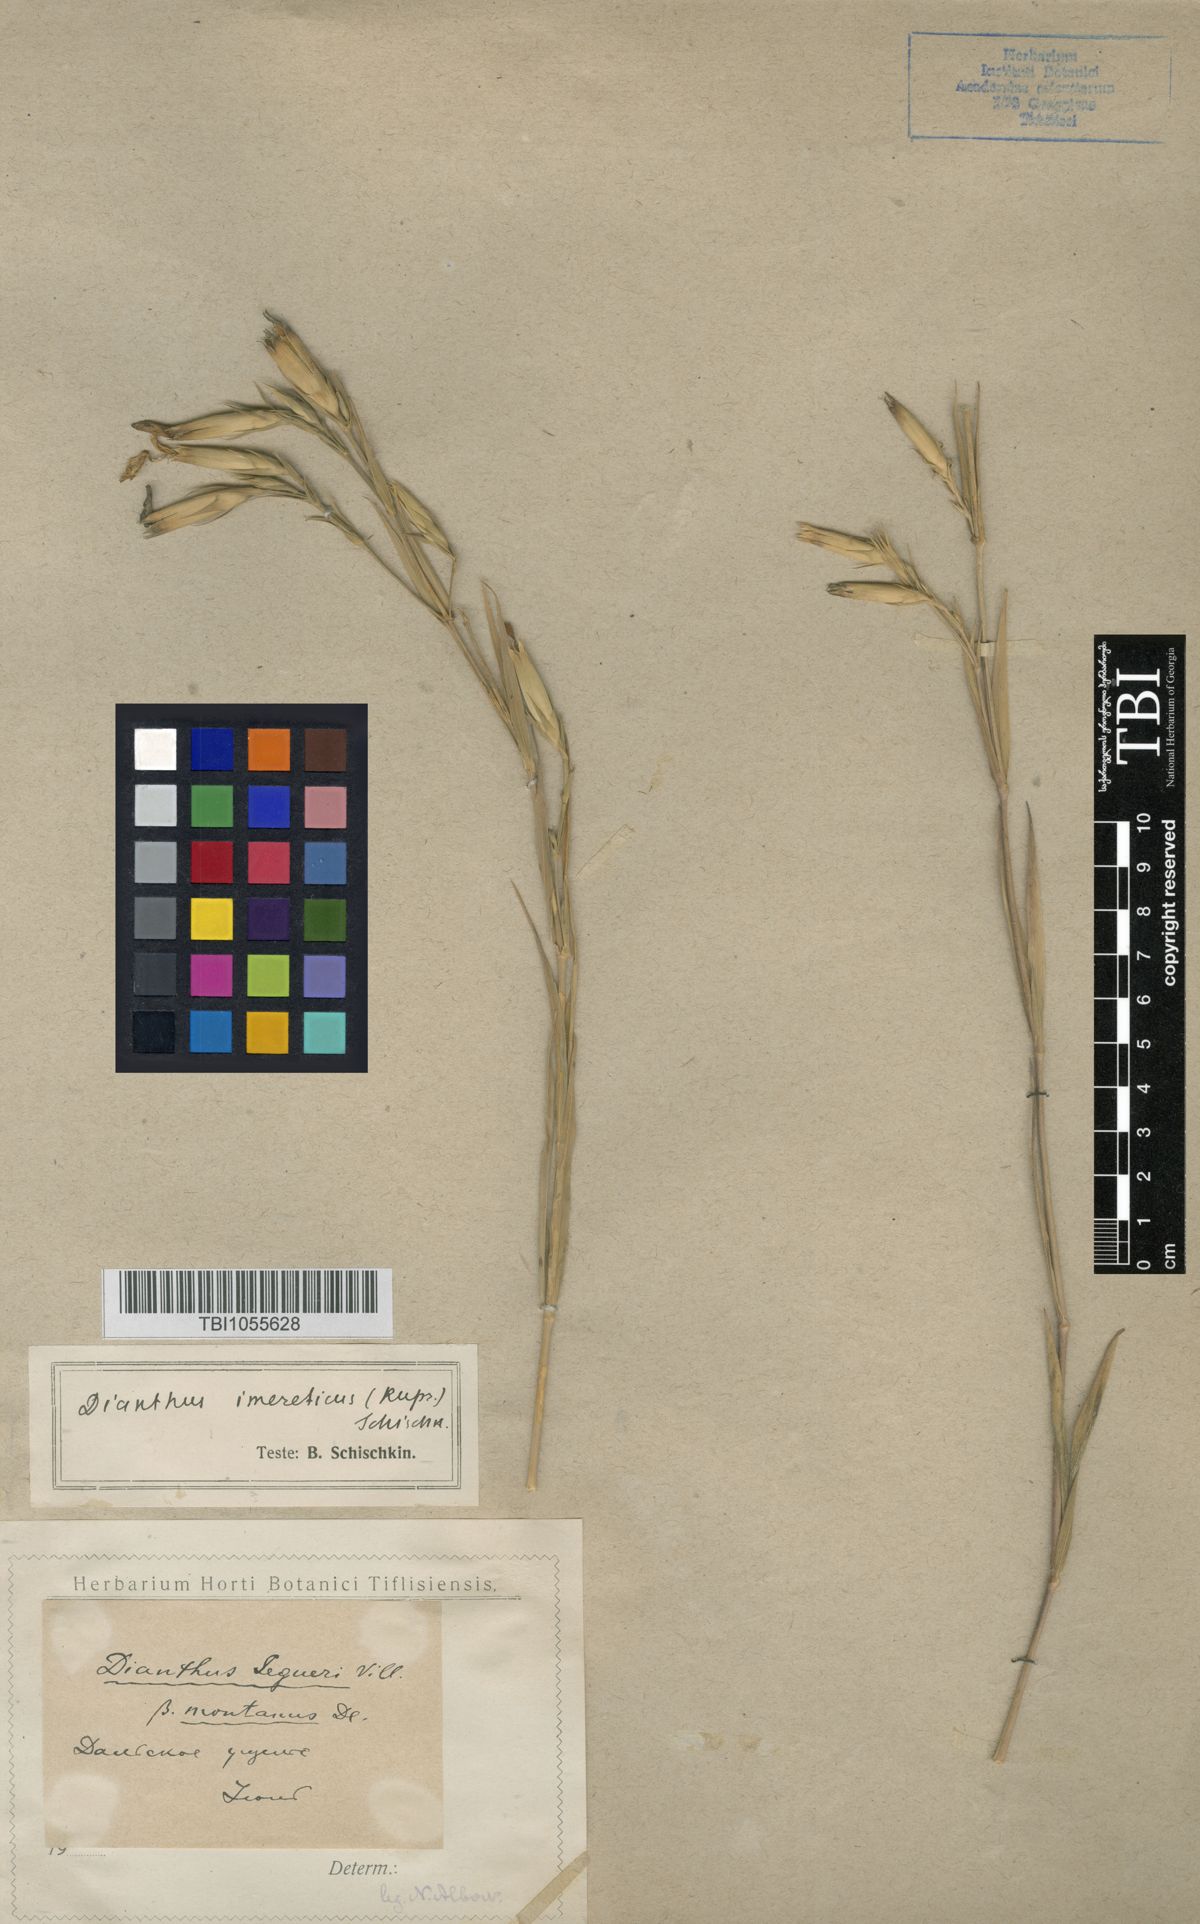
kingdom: Plantae
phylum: Tracheophyta
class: Magnoliopsida
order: Caryophyllales
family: Caryophyllaceae
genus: Dianthus
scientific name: Dianthus imereticus
